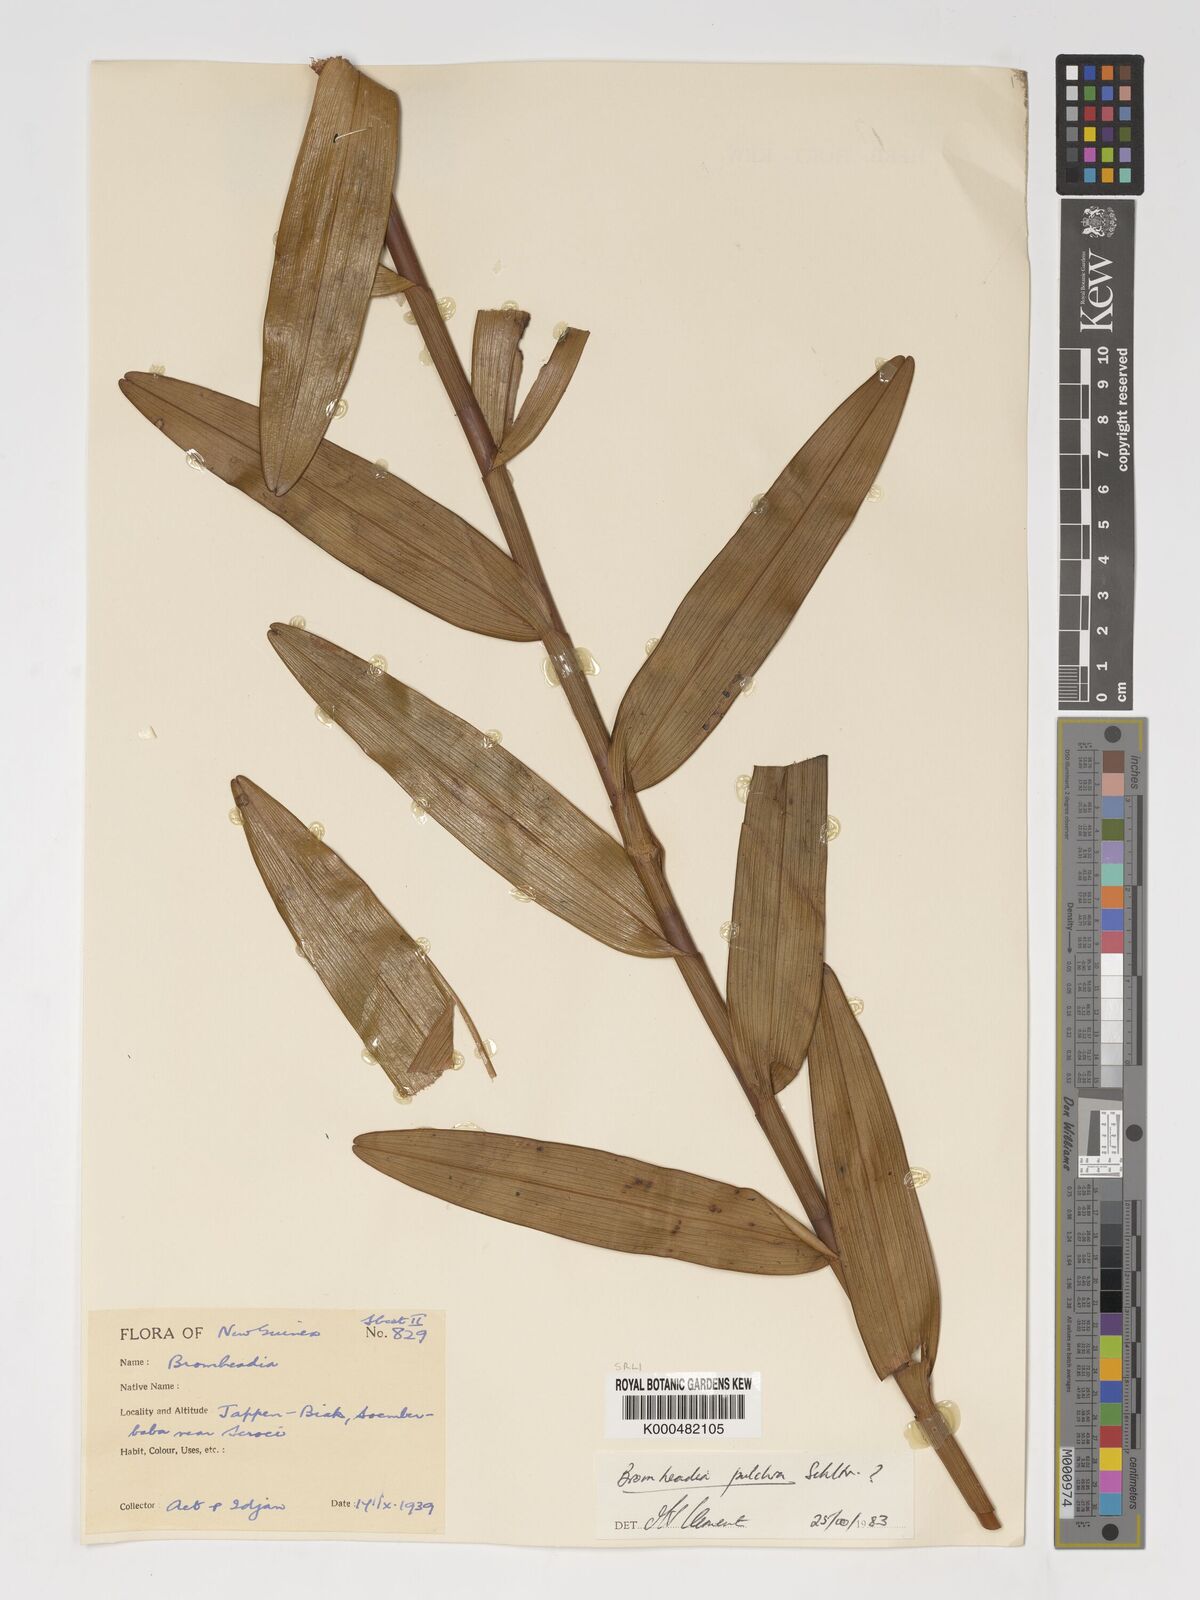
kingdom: Plantae
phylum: Tracheophyta
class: Liliopsida
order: Asparagales
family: Orchidaceae
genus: Bromheadia
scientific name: Bromheadia finlaysoniana
